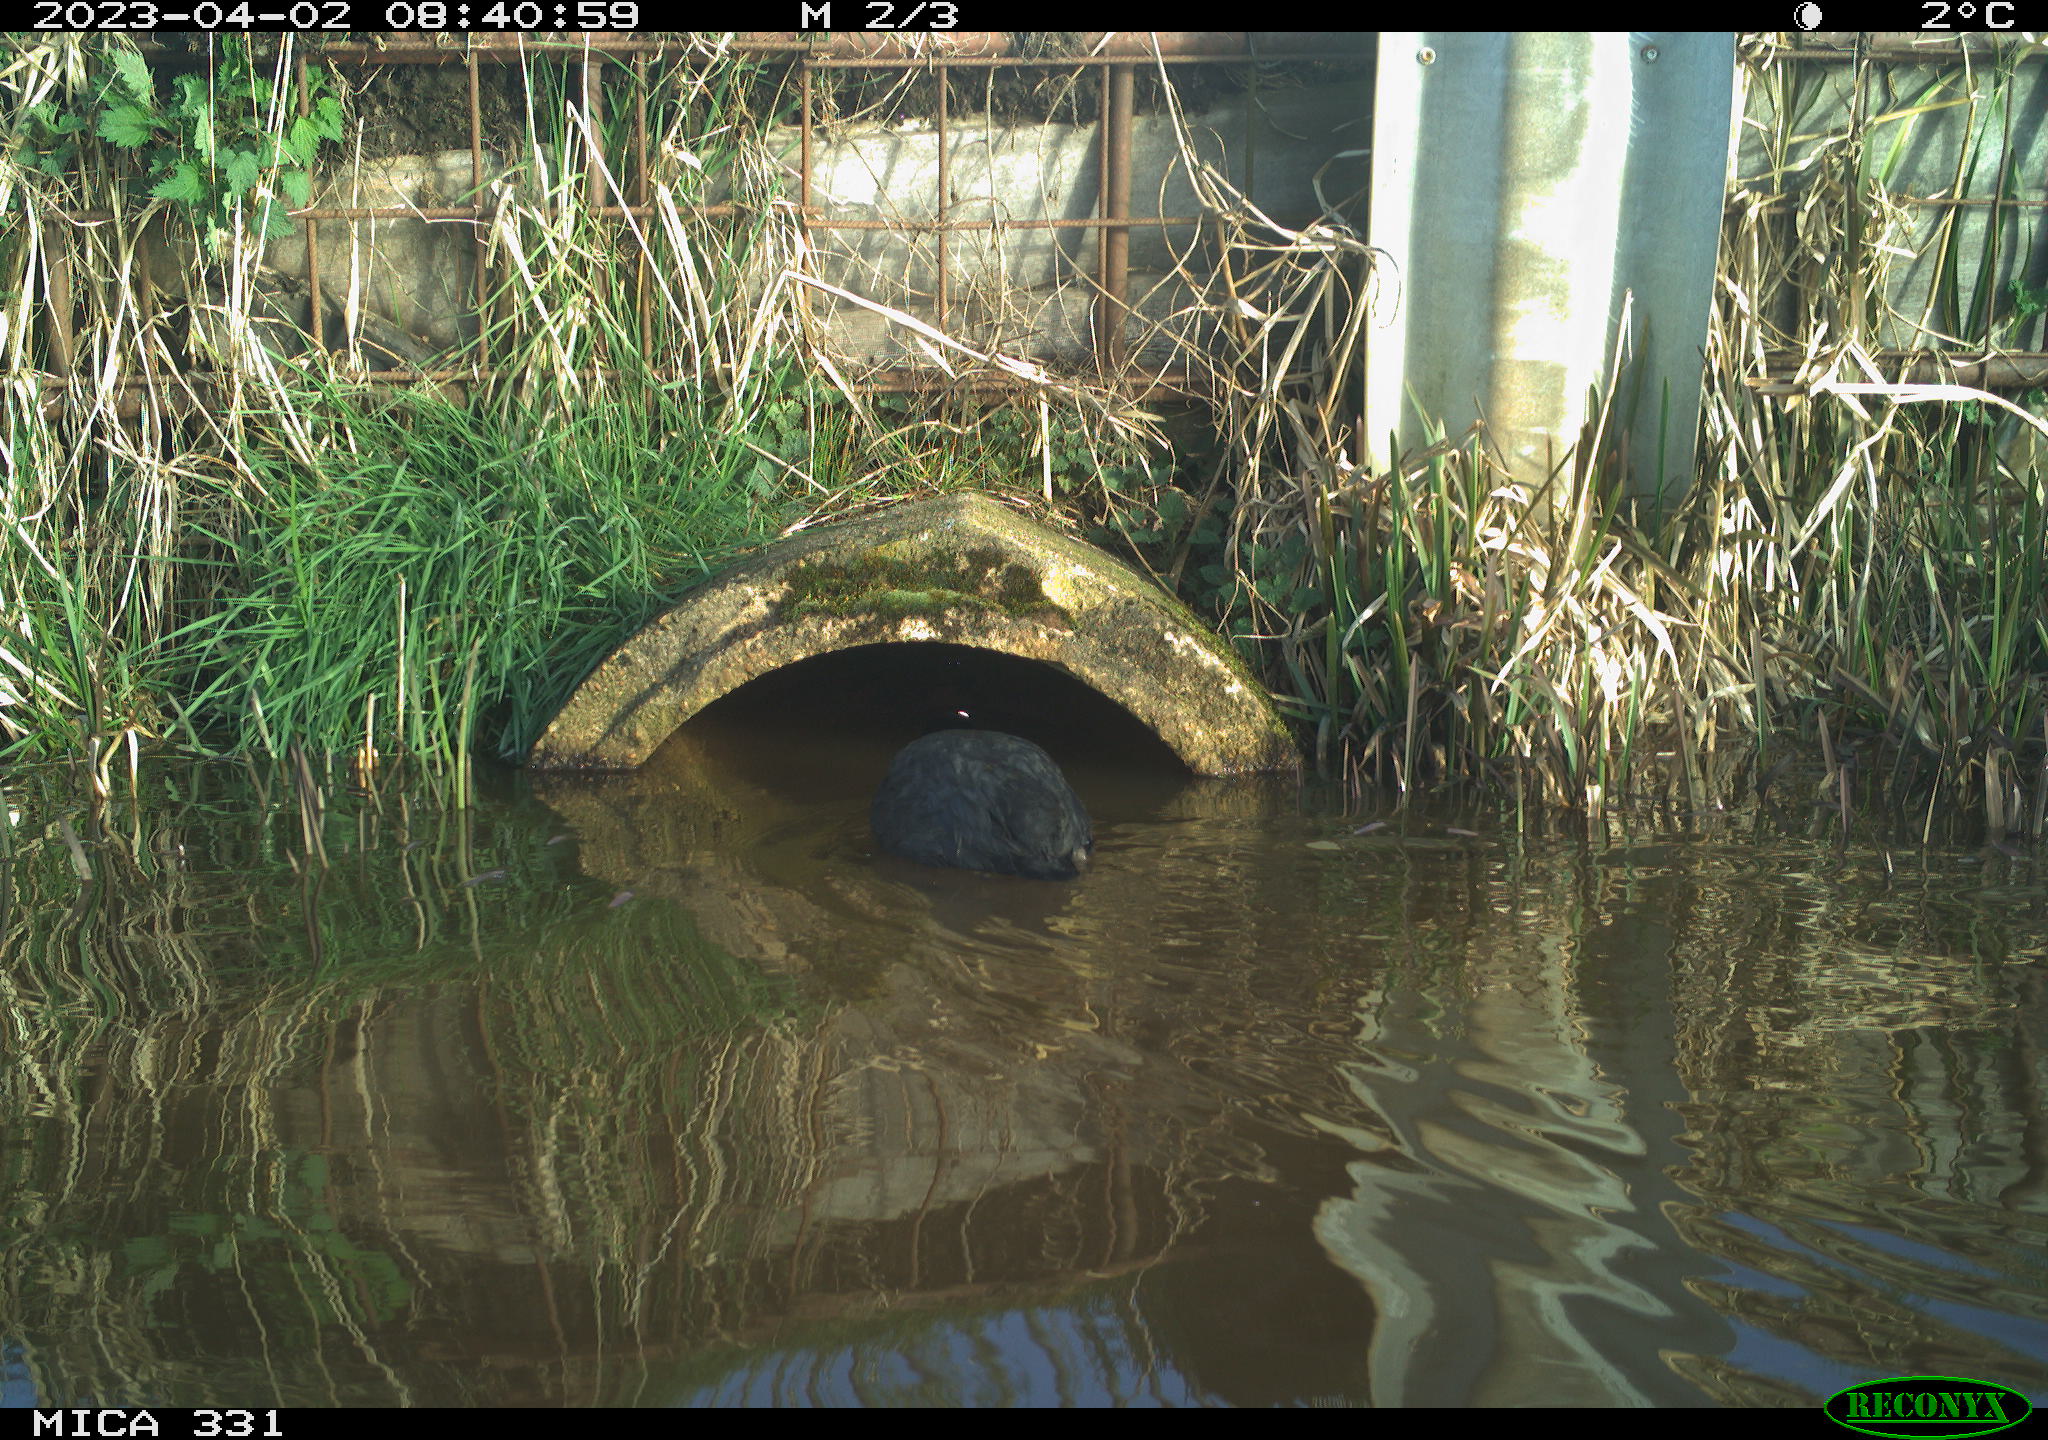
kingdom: Animalia
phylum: Chordata
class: Aves
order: Gruiformes
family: Rallidae
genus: Fulica
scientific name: Fulica atra
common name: Eurasian coot
